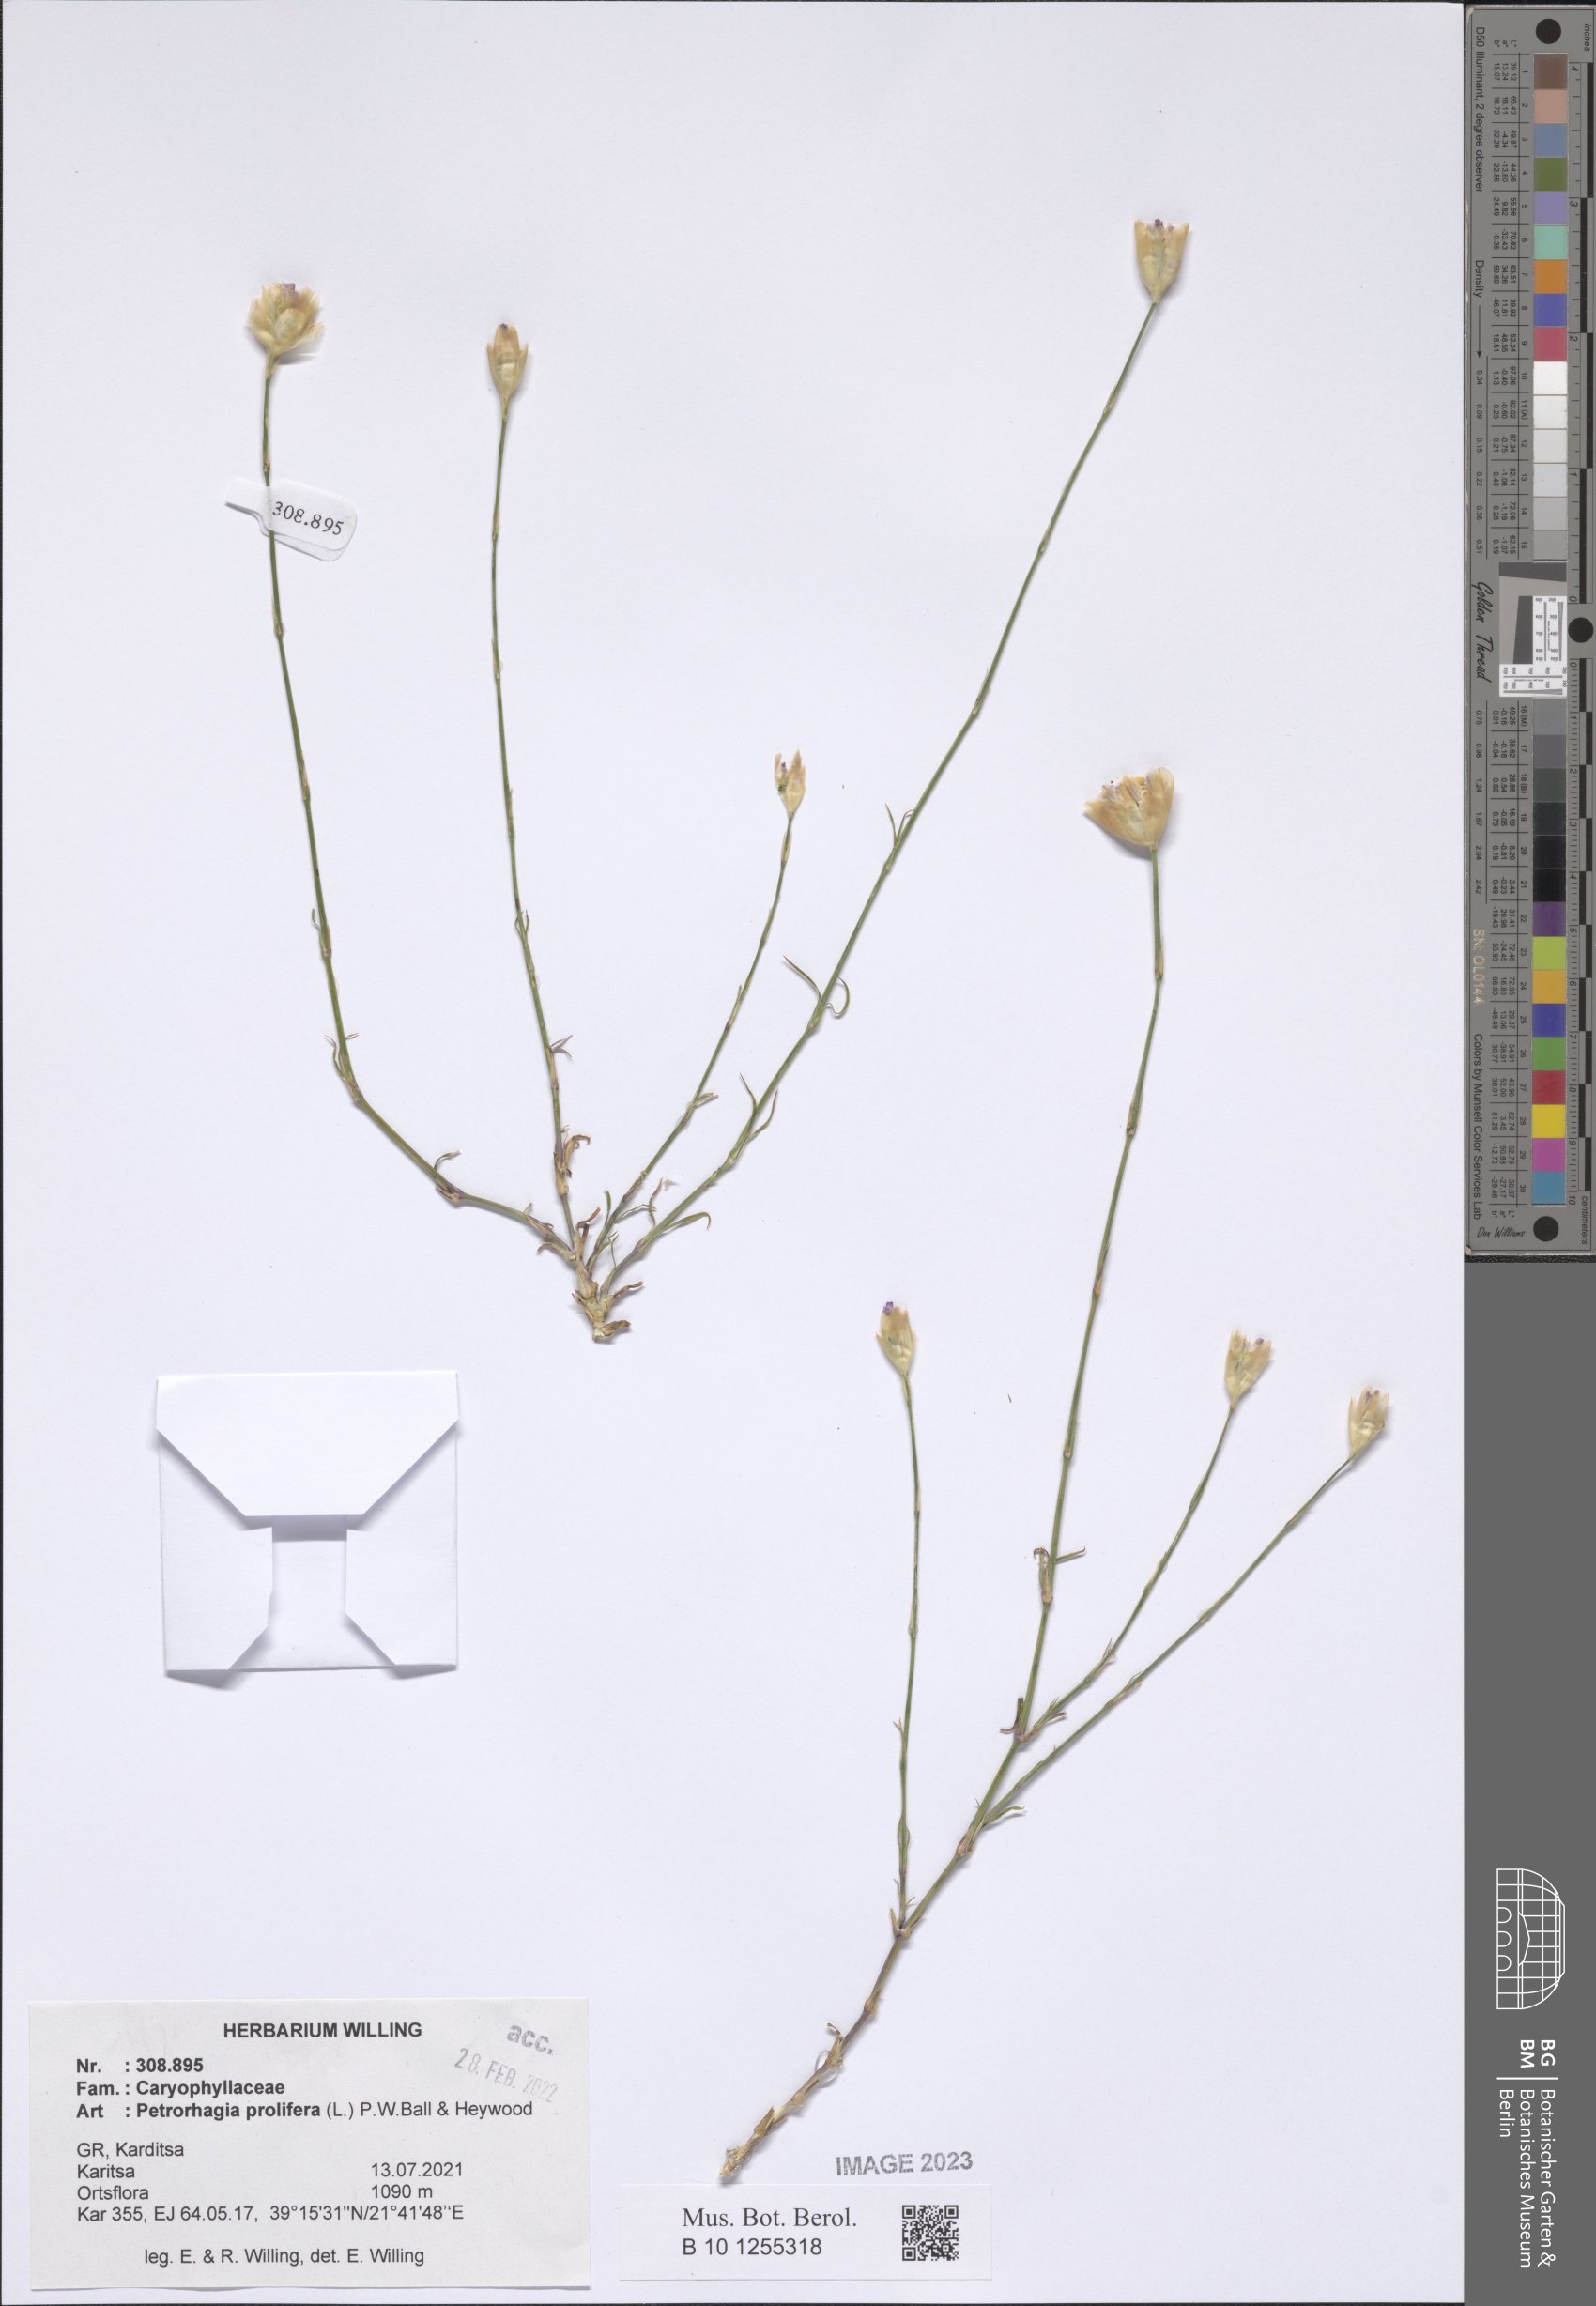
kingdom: Plantae
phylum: Tracheophyta
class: Magnoliopsida
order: Caryophyllales
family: Caryophyllaceae
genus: Petrorhagia
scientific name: Petrorhagia prolifera
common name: Proliferous pink
